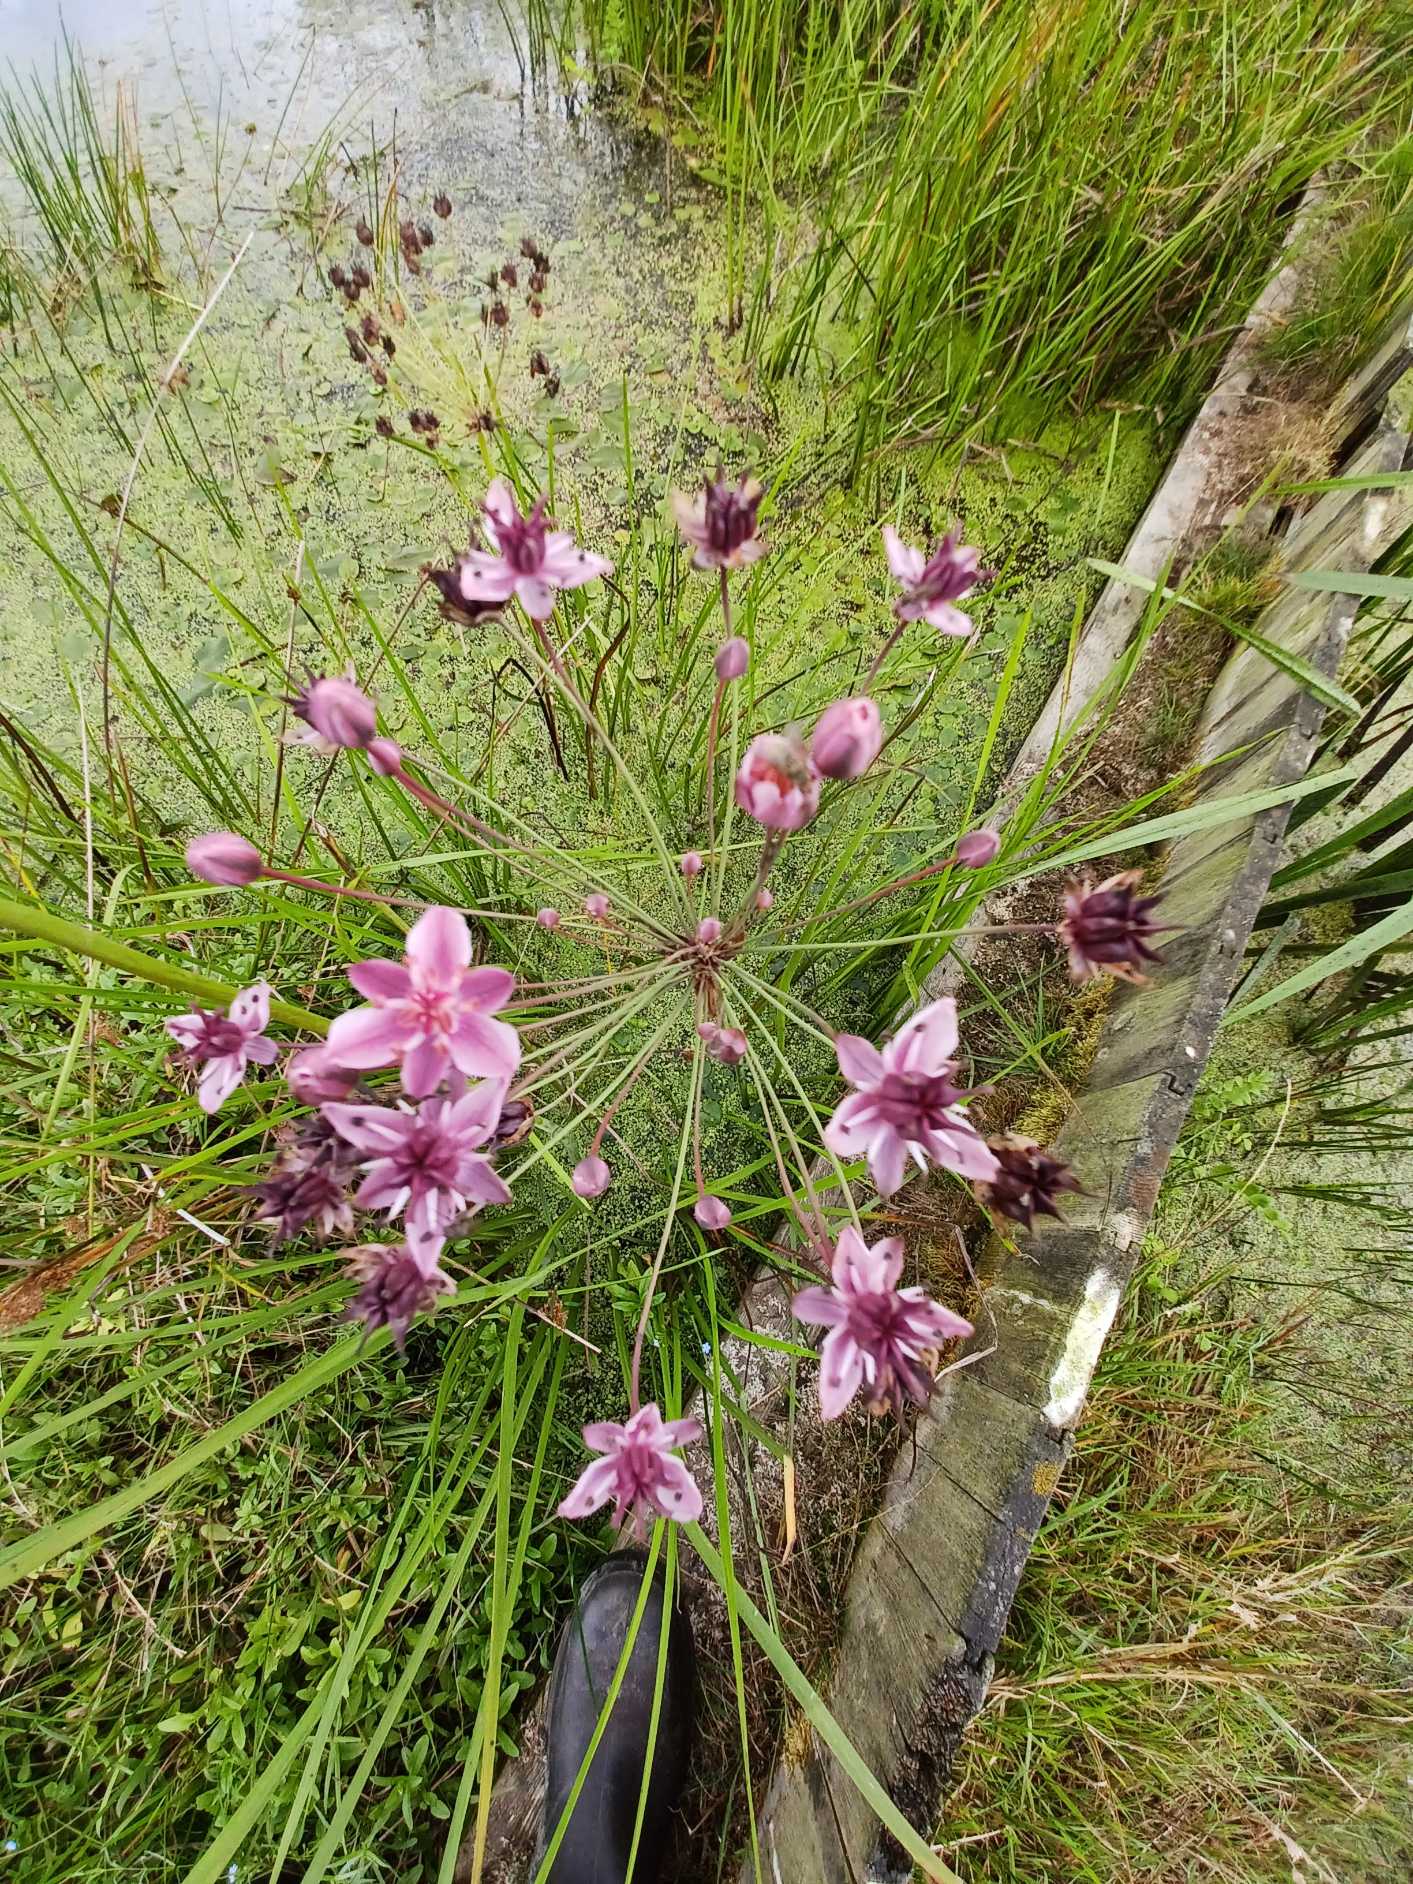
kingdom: Plantae
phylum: Tracheophyta
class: Liliopsida
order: Alismatales
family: Butomaceae
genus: Butomus
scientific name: Butomus umbellatus
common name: Brudelys
